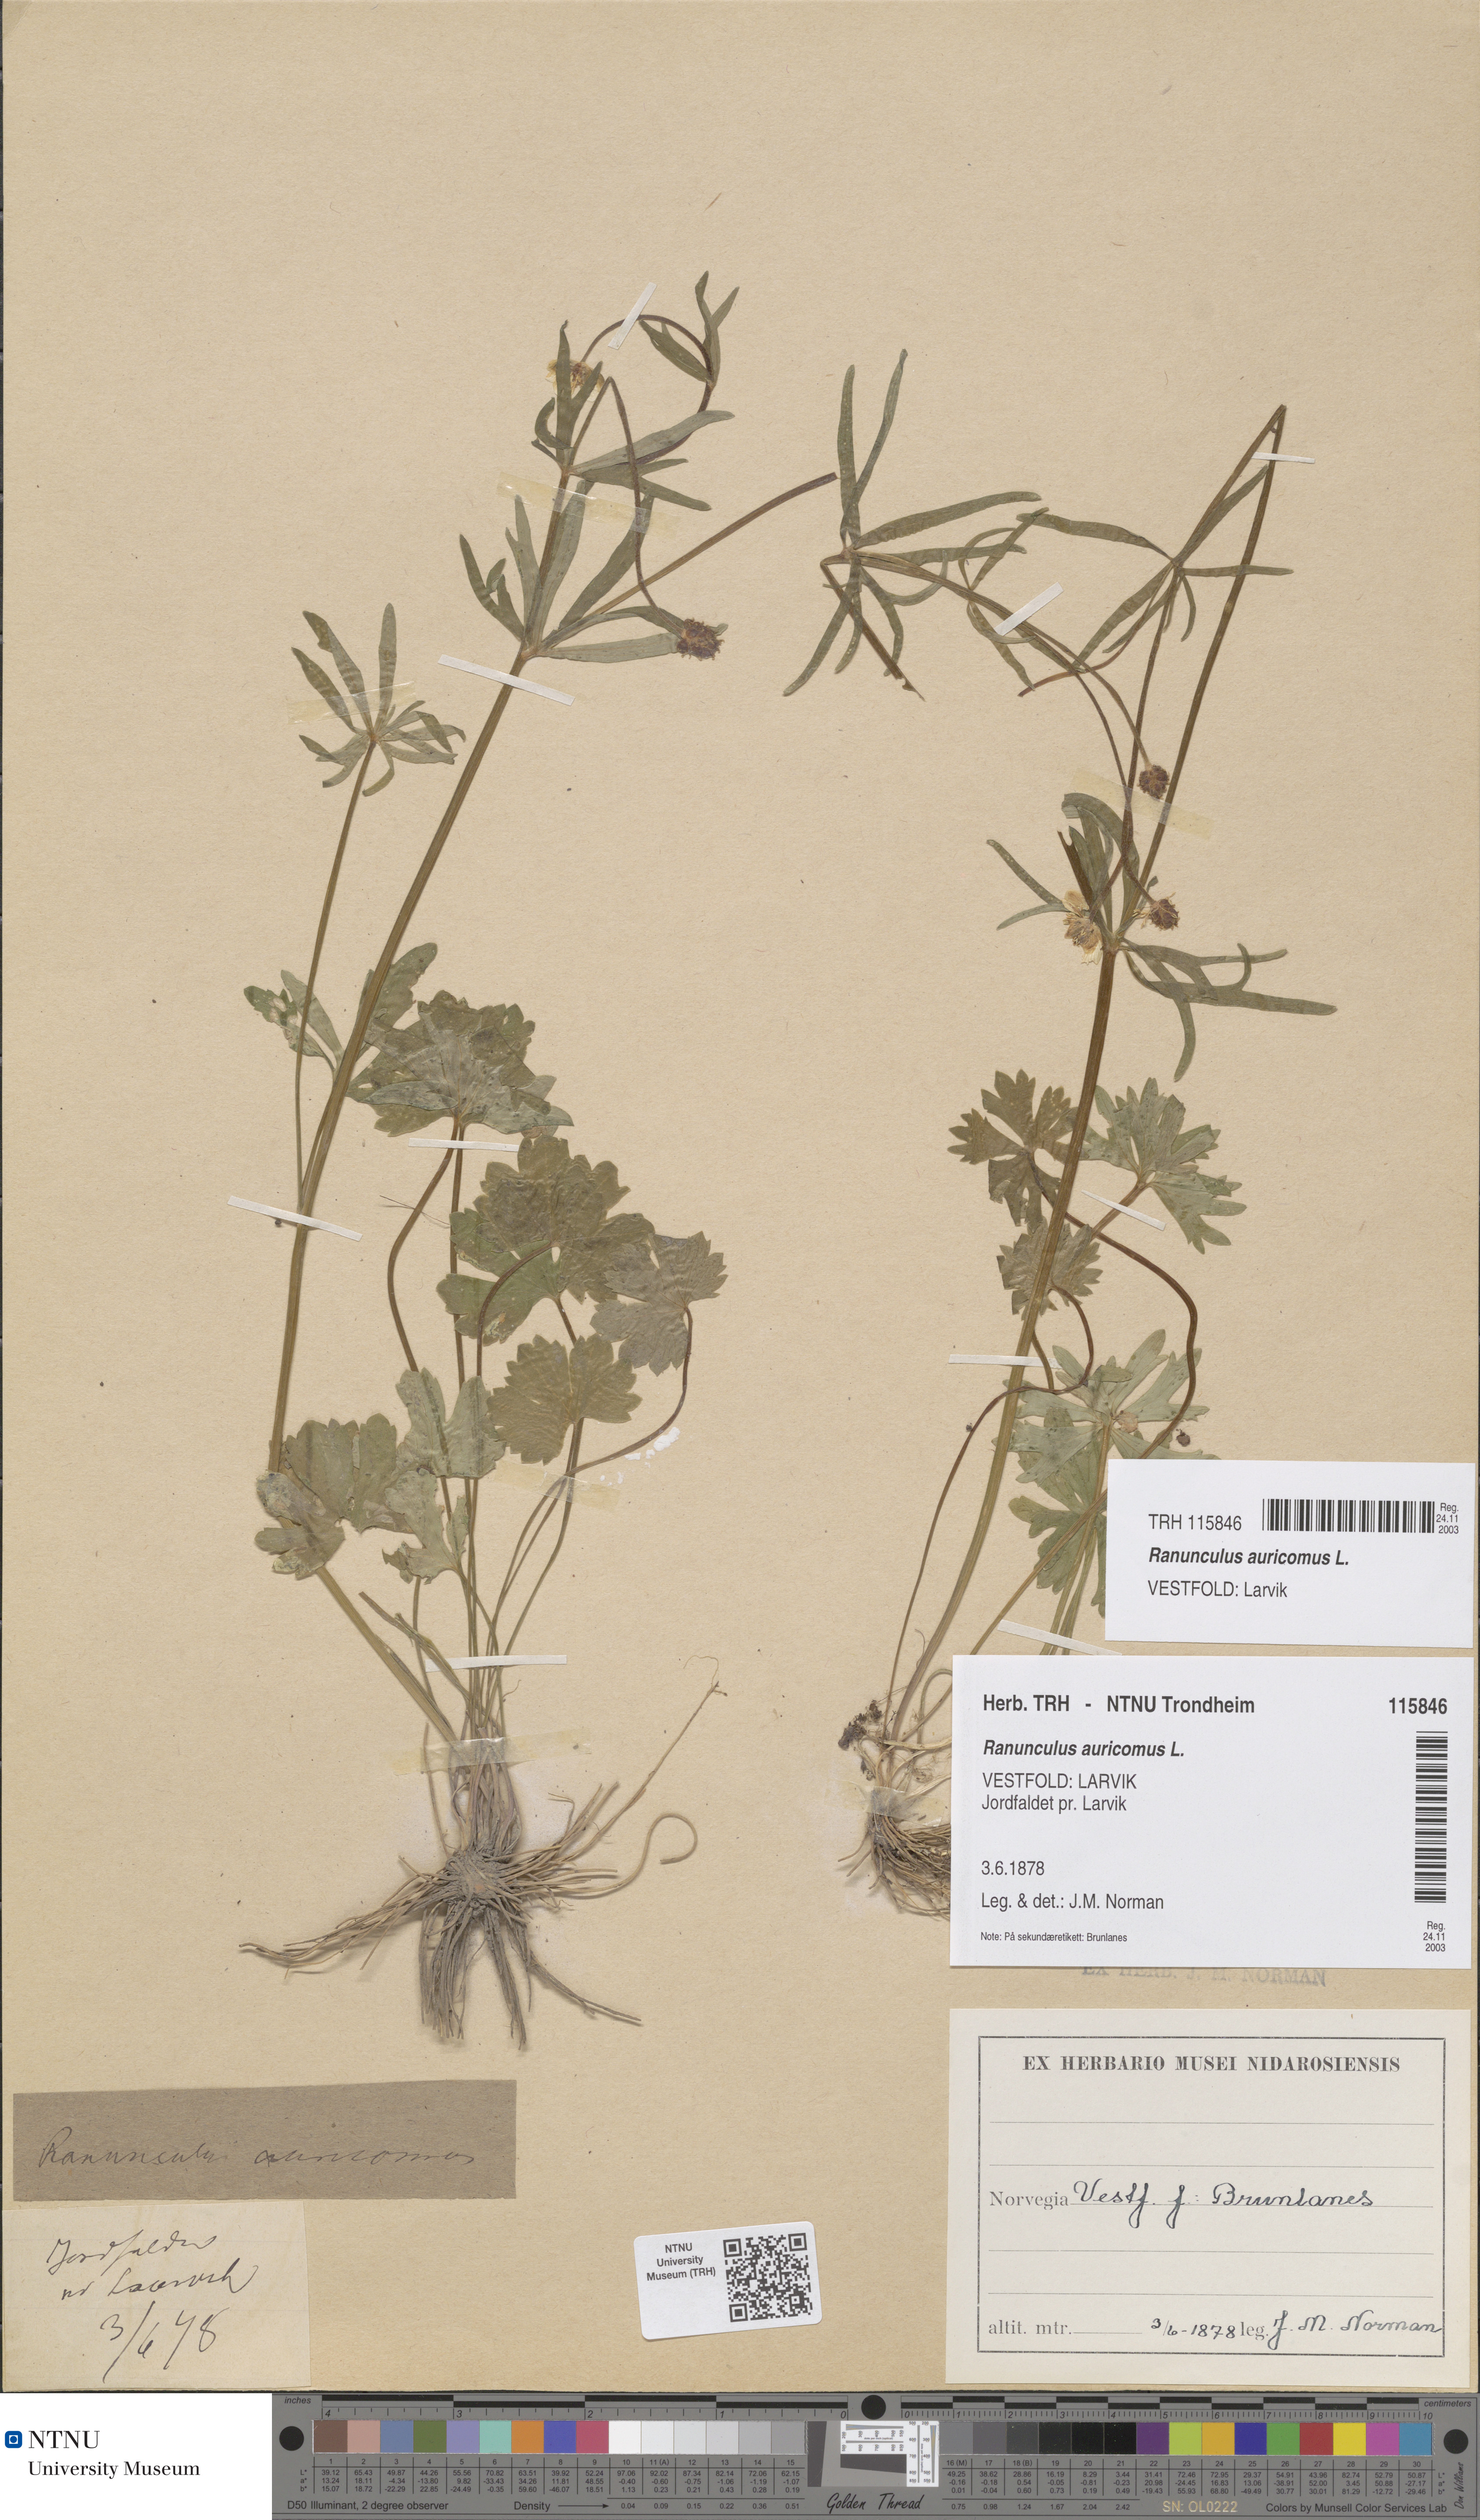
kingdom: Plantae
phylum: Tracheophyta
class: Magnoliopsida
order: Ranunculales
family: Ranunculaceae
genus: Ranunculus
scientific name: Ranunculus auricomus
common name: Goldilocks buttercup
